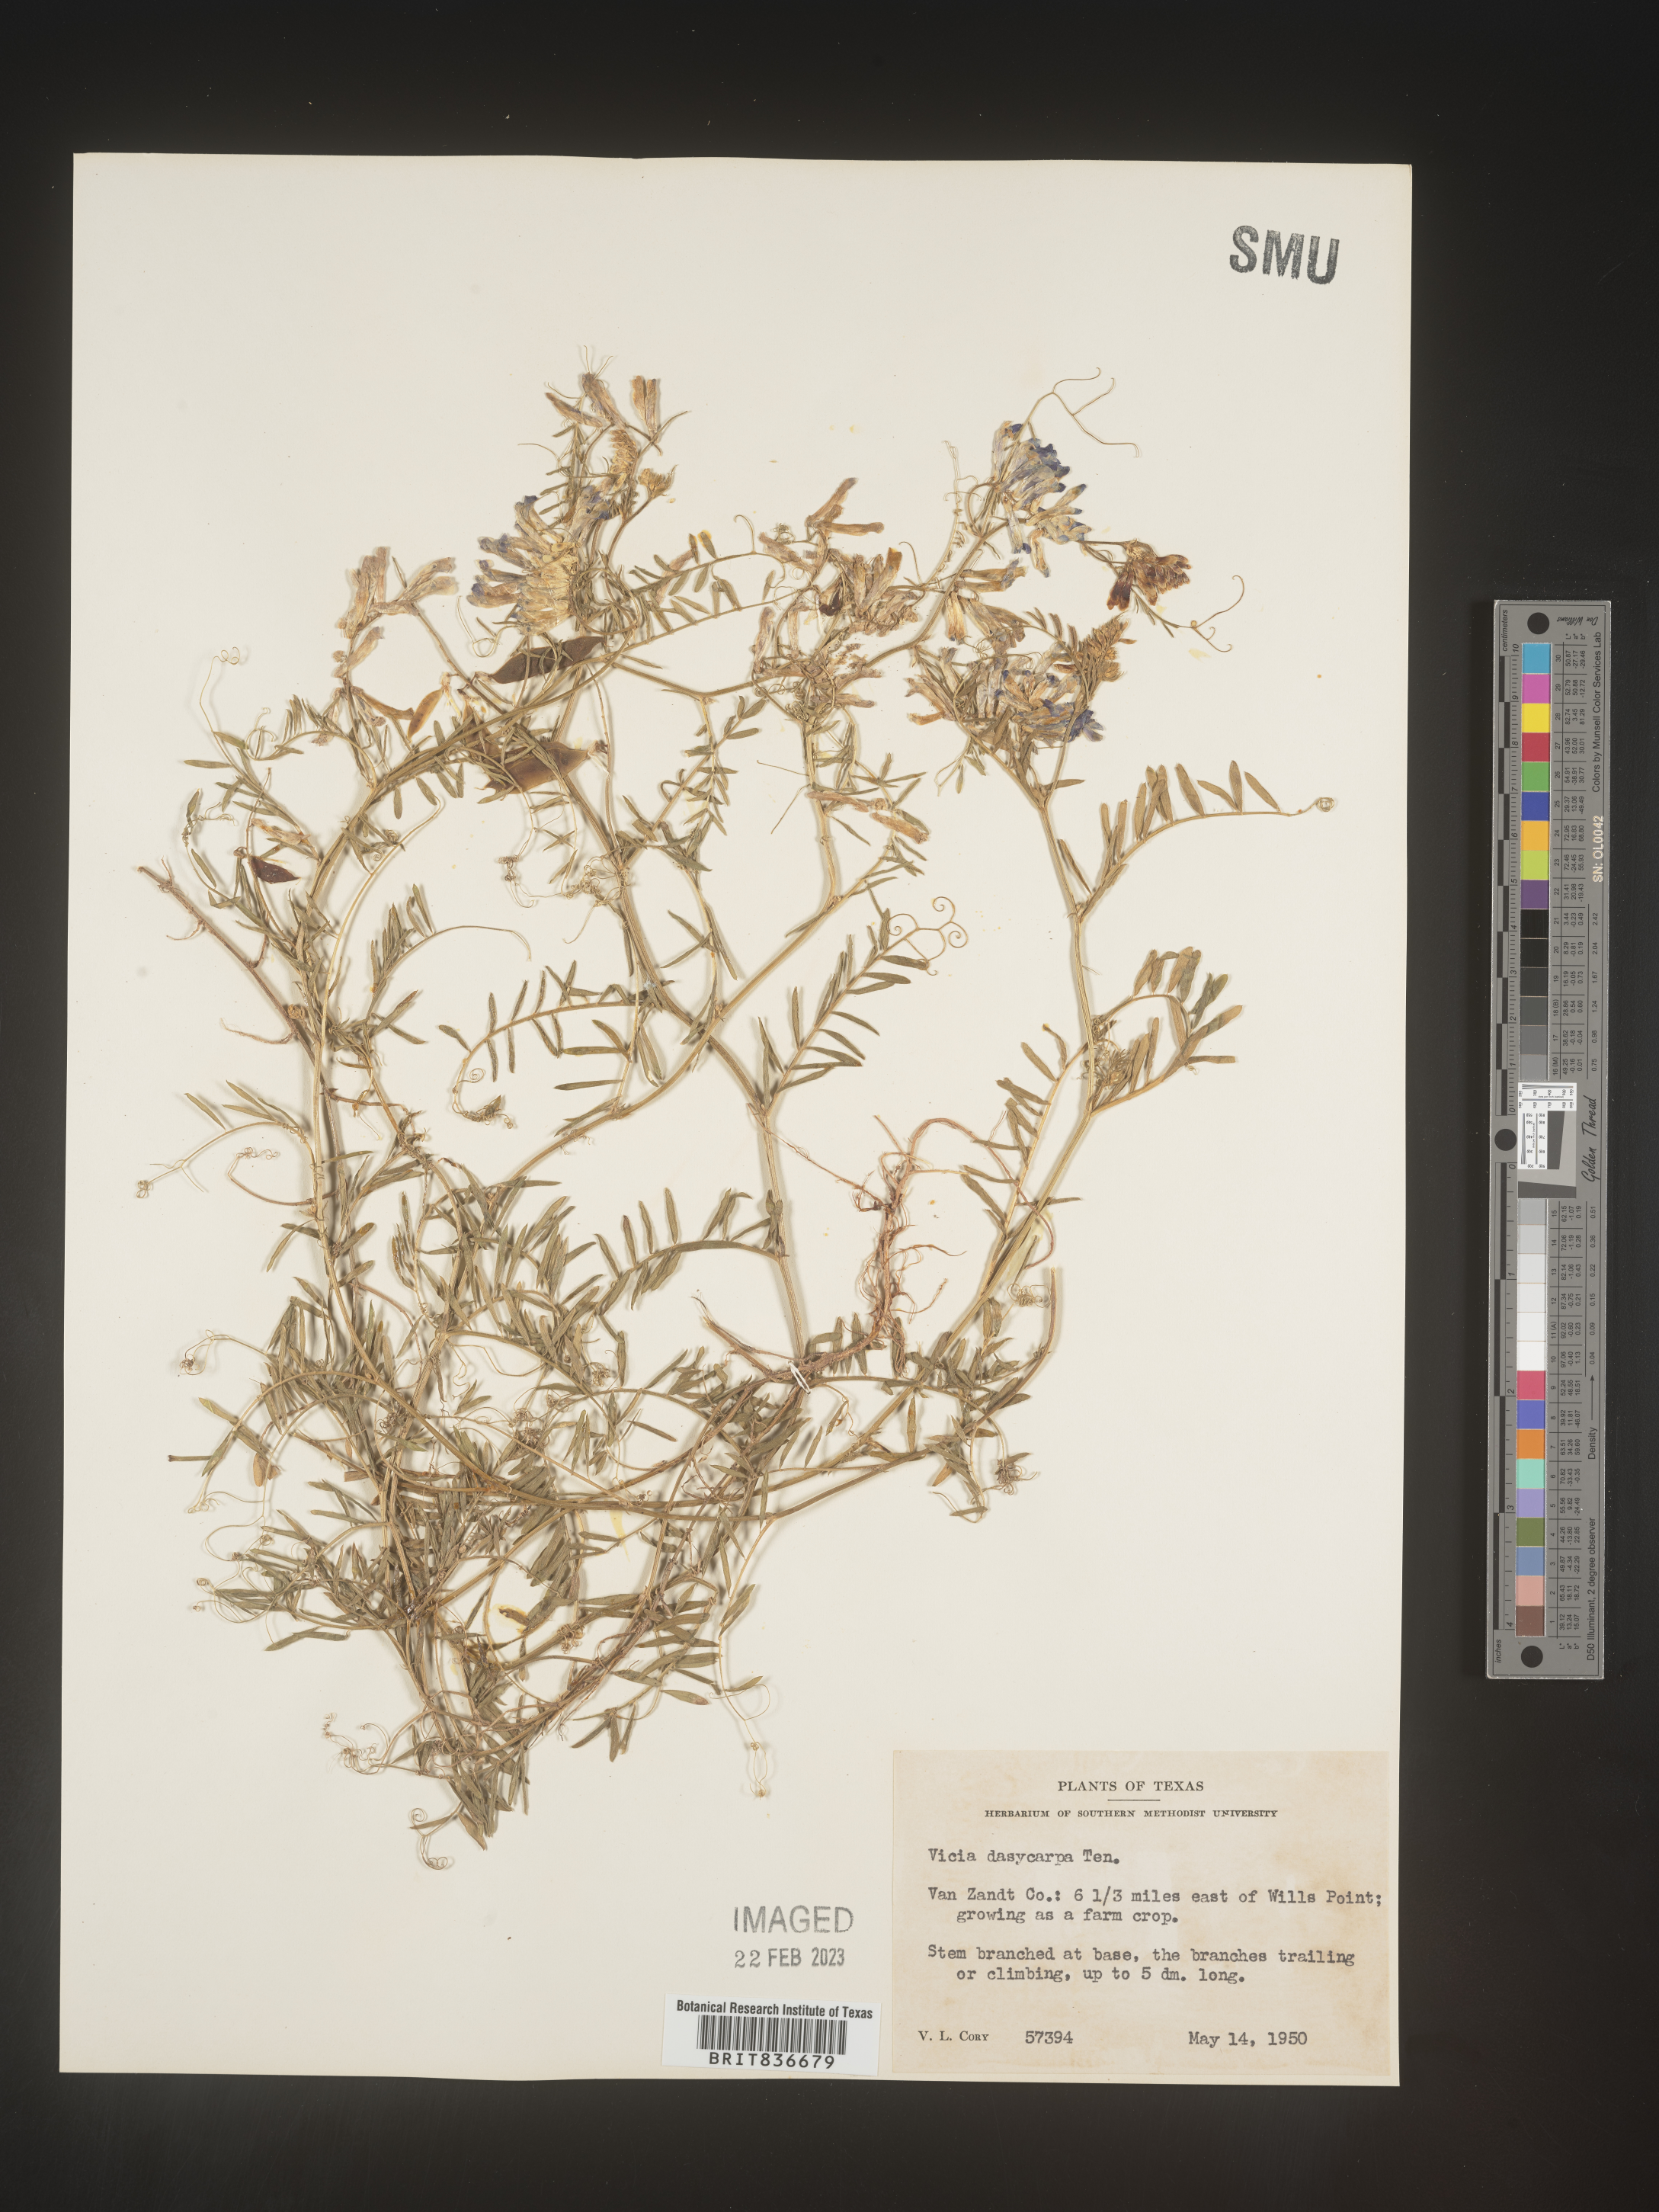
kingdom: Plantae
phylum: Tracheophyta
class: Magnoliopsida
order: Fabales
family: Fabaceae
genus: Vicia
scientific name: Vicia
